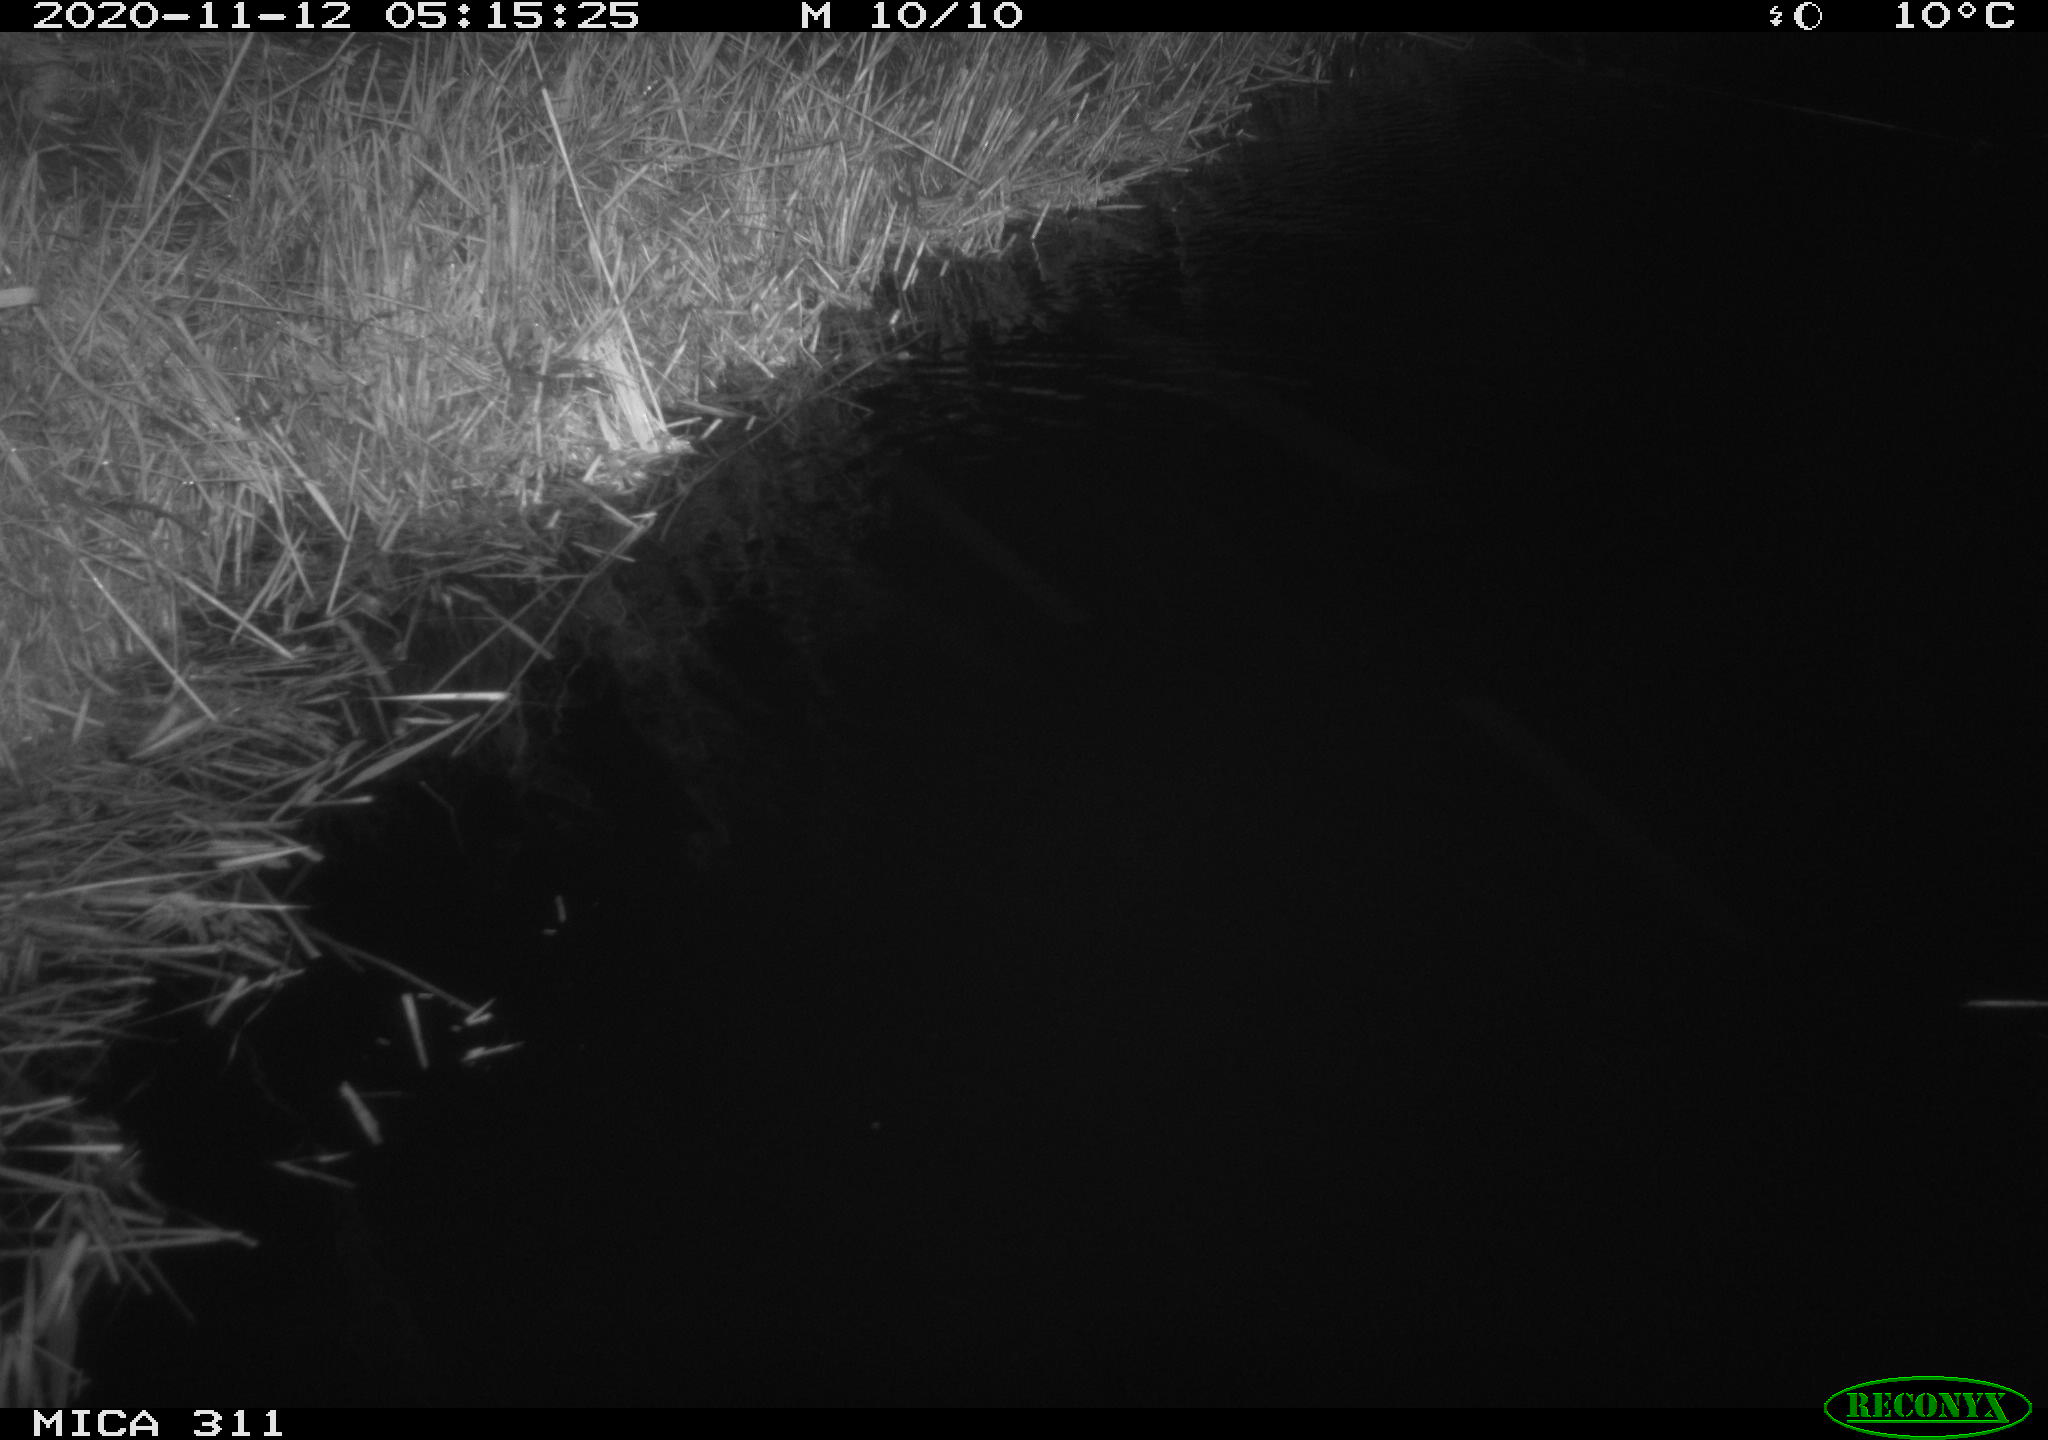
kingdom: Animalia
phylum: Chordata
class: Mammalia
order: Rodentia
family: Muridae
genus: Rattus
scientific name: Rattus norvegicus
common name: Brown rat
